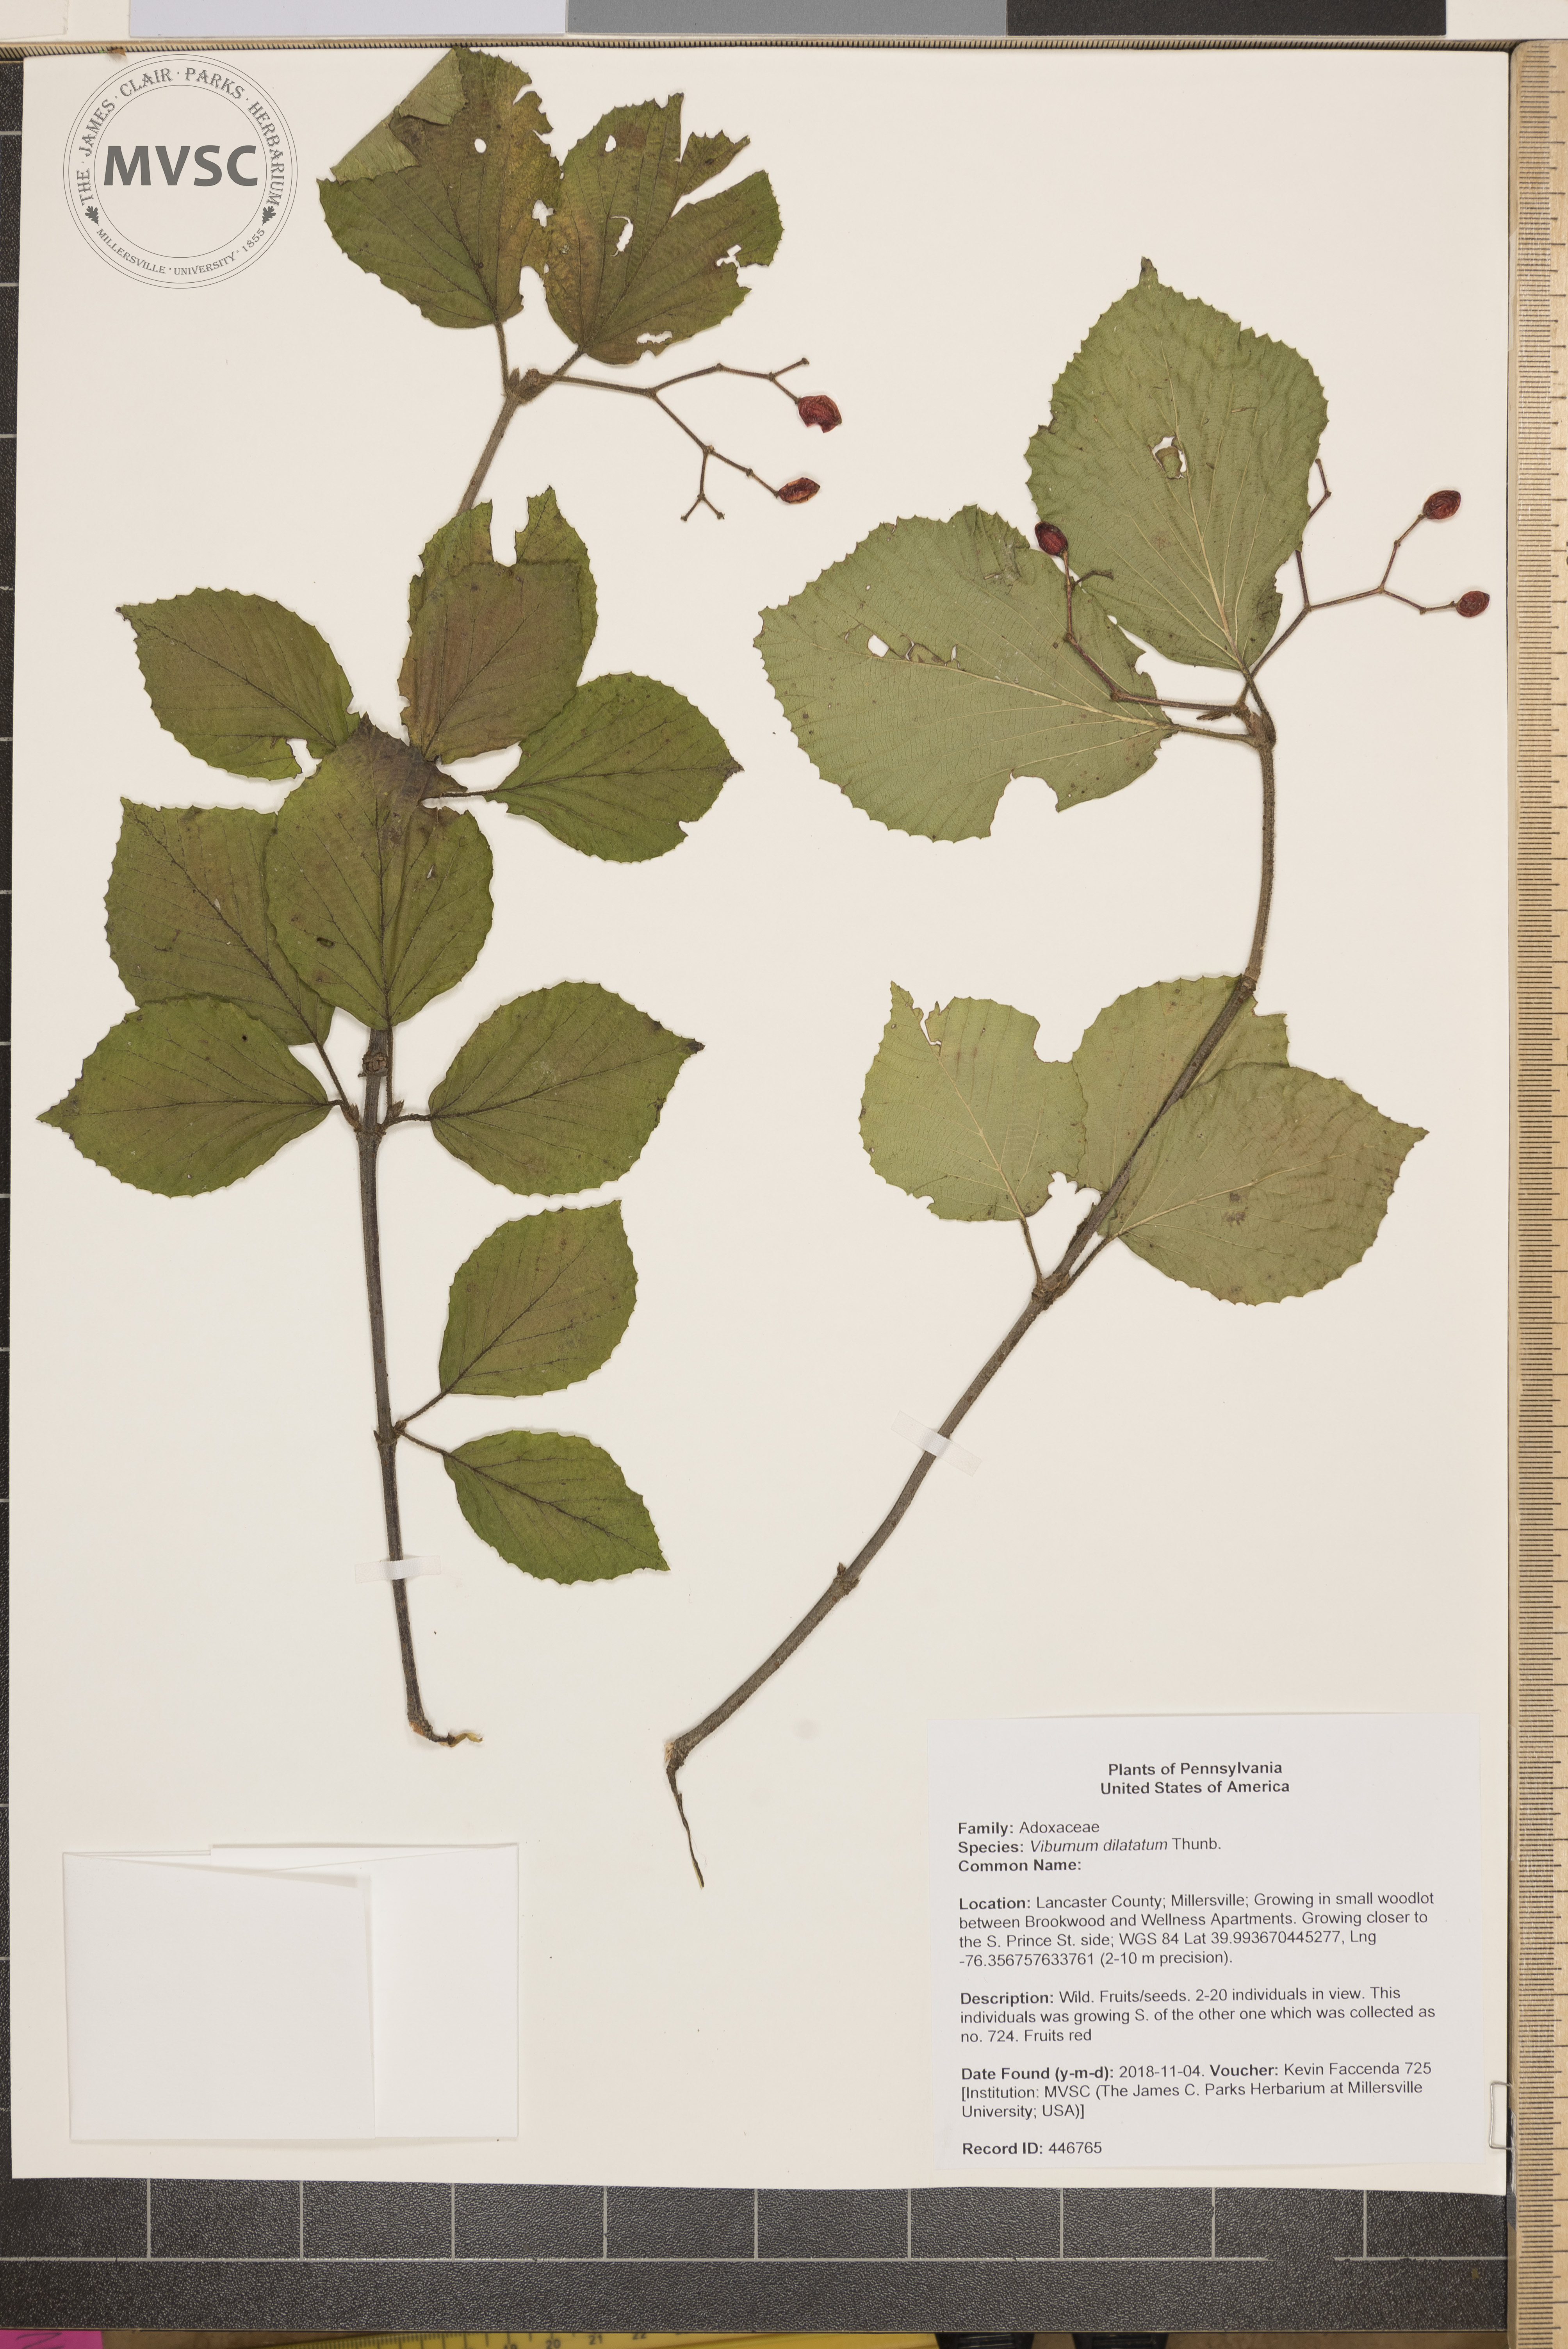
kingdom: Plantae
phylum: Tracheophyta
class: Magnoliopsida
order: Dipsacales
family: Viburnaceae
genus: Viburnum
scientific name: Viburnum dilatatum
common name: Linden arrowwood
